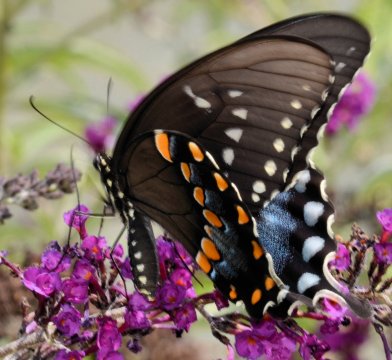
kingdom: Animalia
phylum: Arthropoda
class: Insecta
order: Lepidoptera
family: Papilionidae
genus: Pterourus
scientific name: Pterourus troilus
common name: Spicebush Swallowtail
